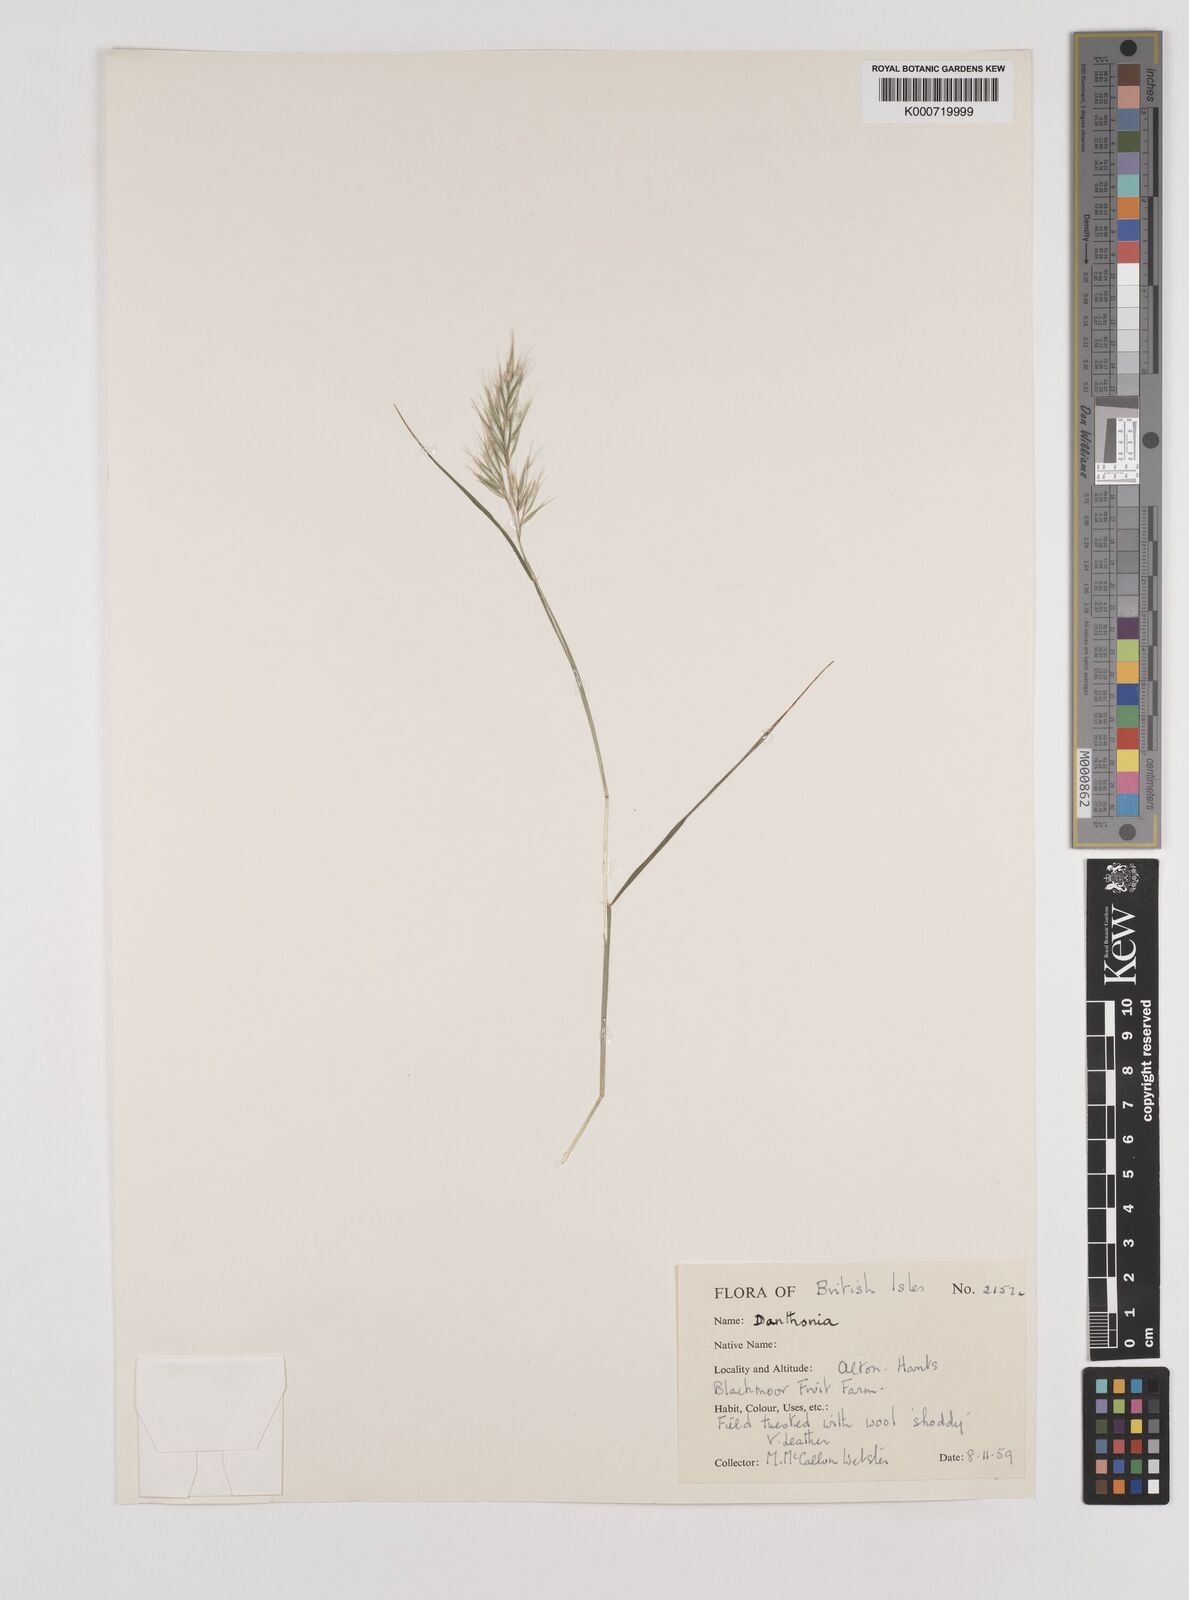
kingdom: Plantae
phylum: Tracheophyta
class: Liliopsida
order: Poales
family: Poaceae
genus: Rytidosperma
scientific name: Rytidosperma
